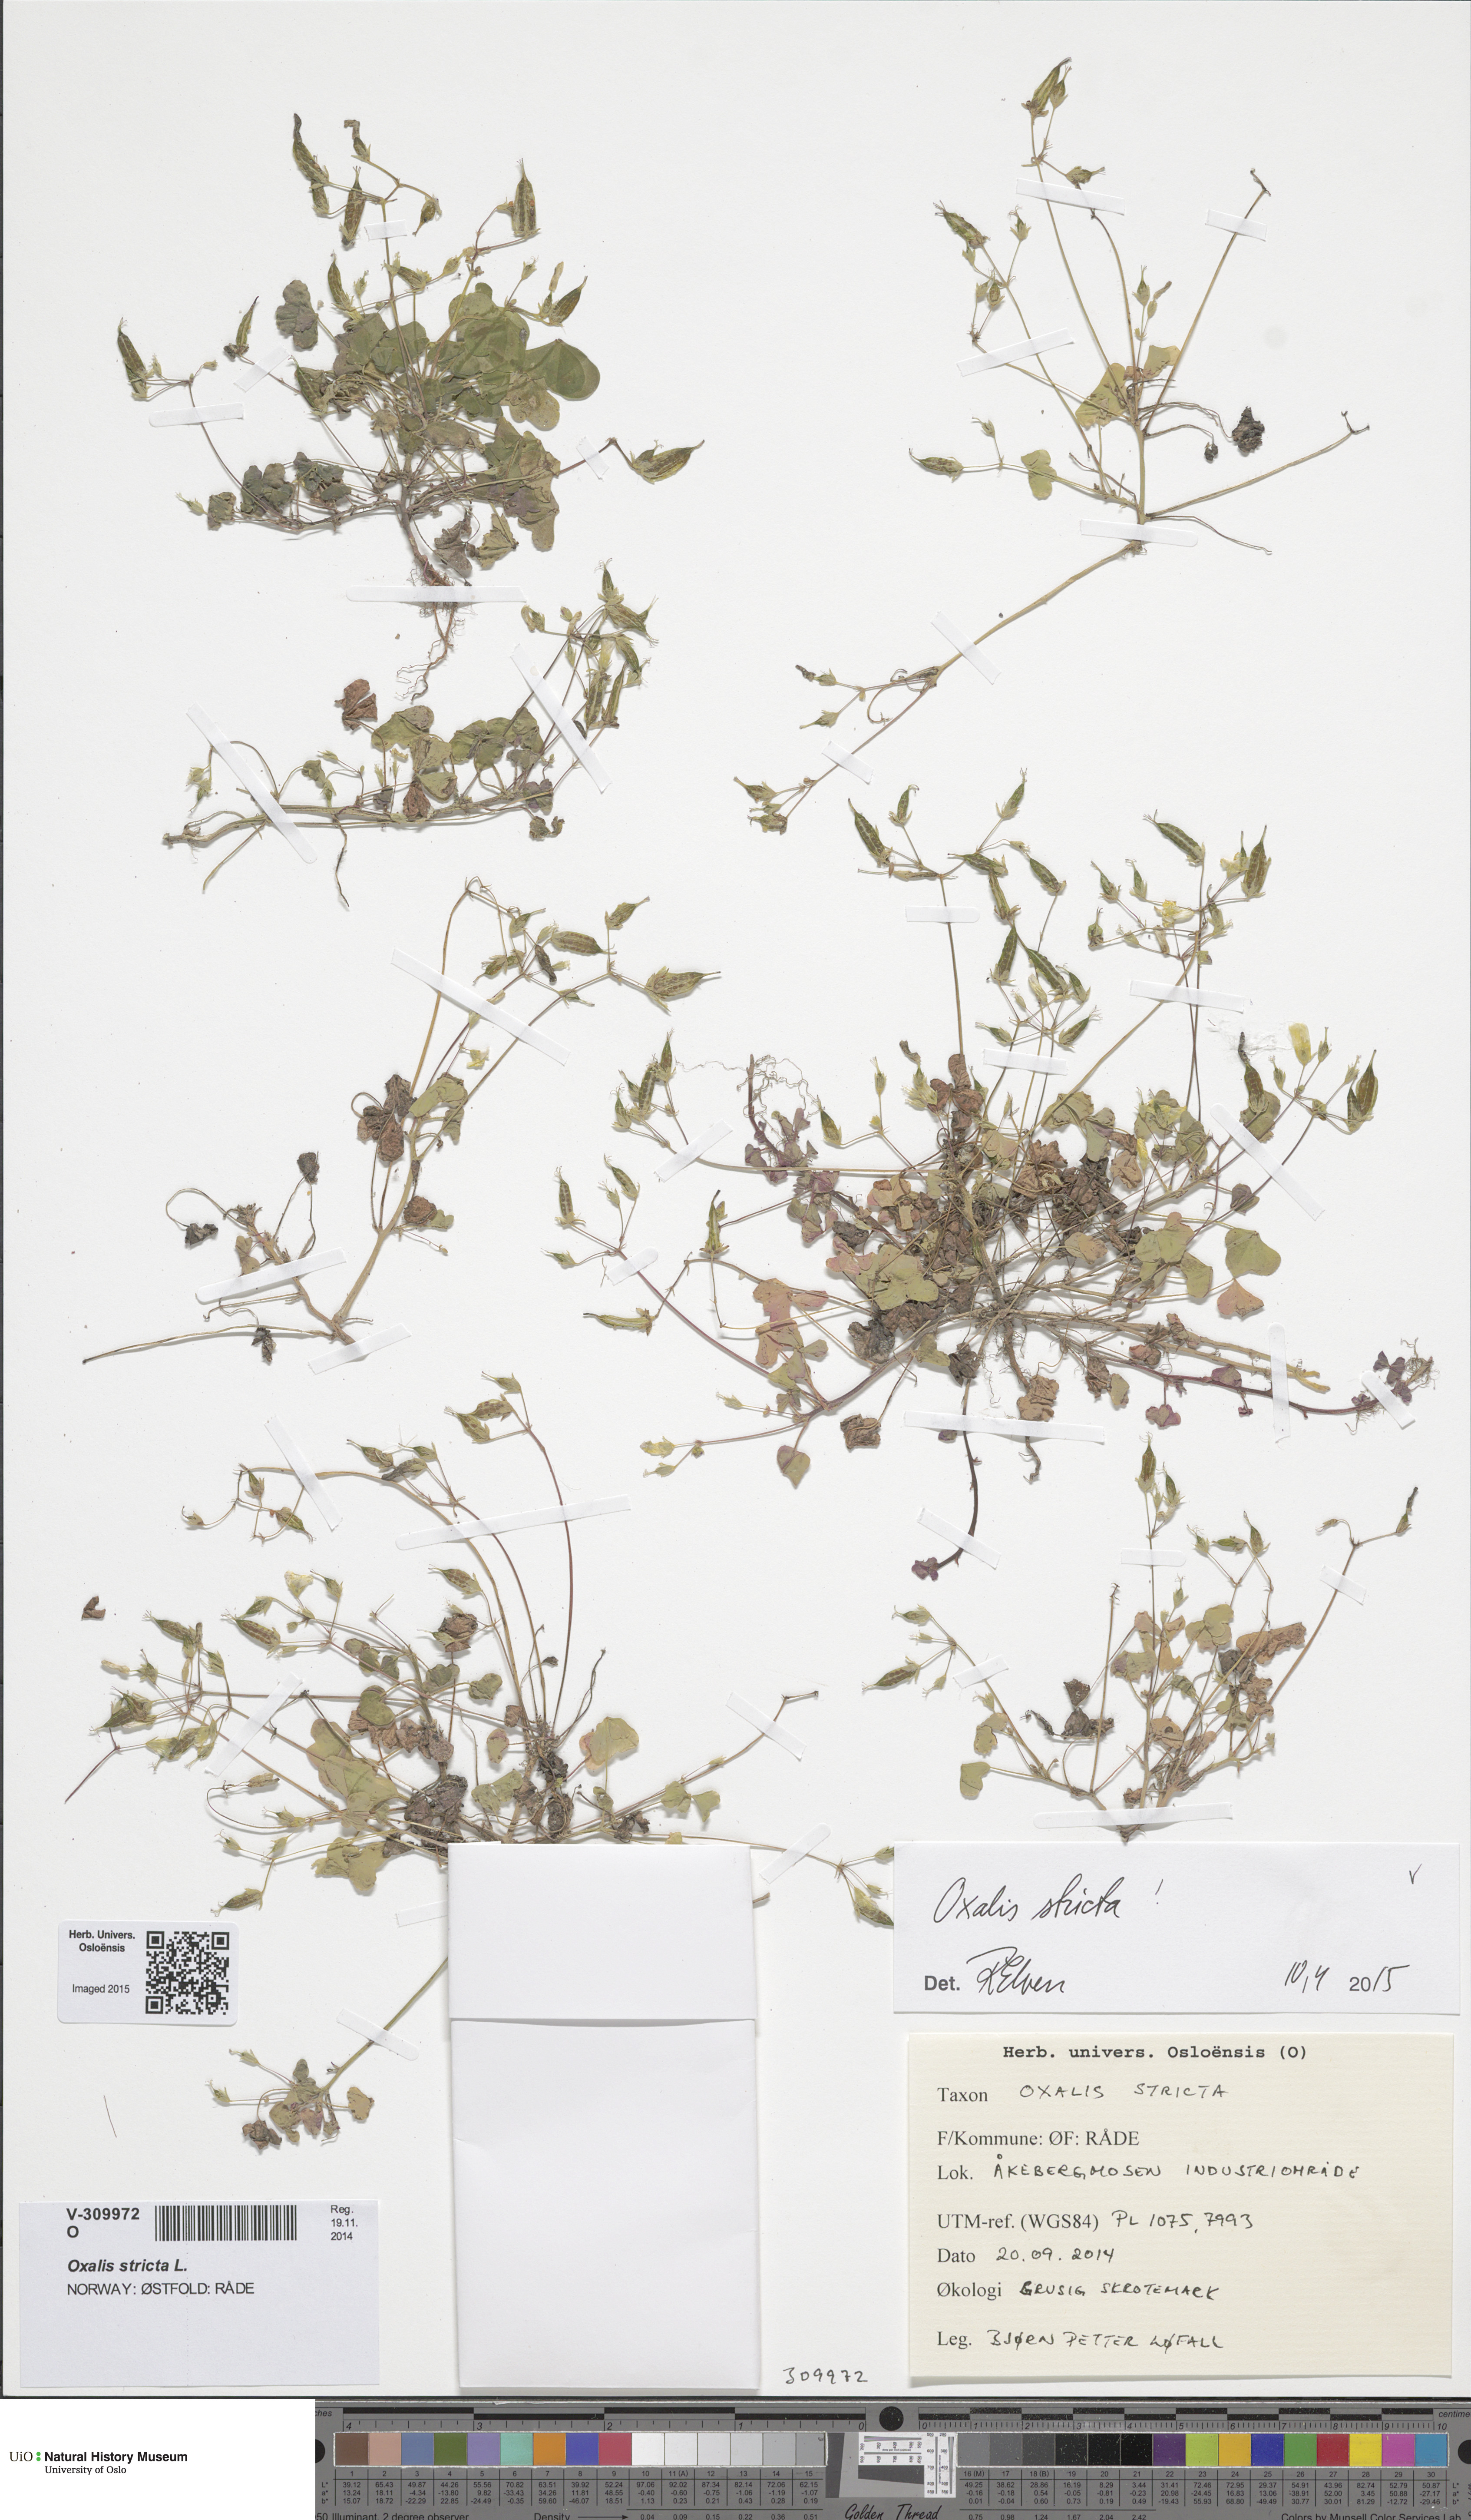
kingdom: Plantae
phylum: Tracheophyta
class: Magnoliopsida
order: Oxalidales
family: Oxalidaceae
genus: Oxalis
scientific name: Oxalis dillenii
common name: Sussex yellow-sorrel
